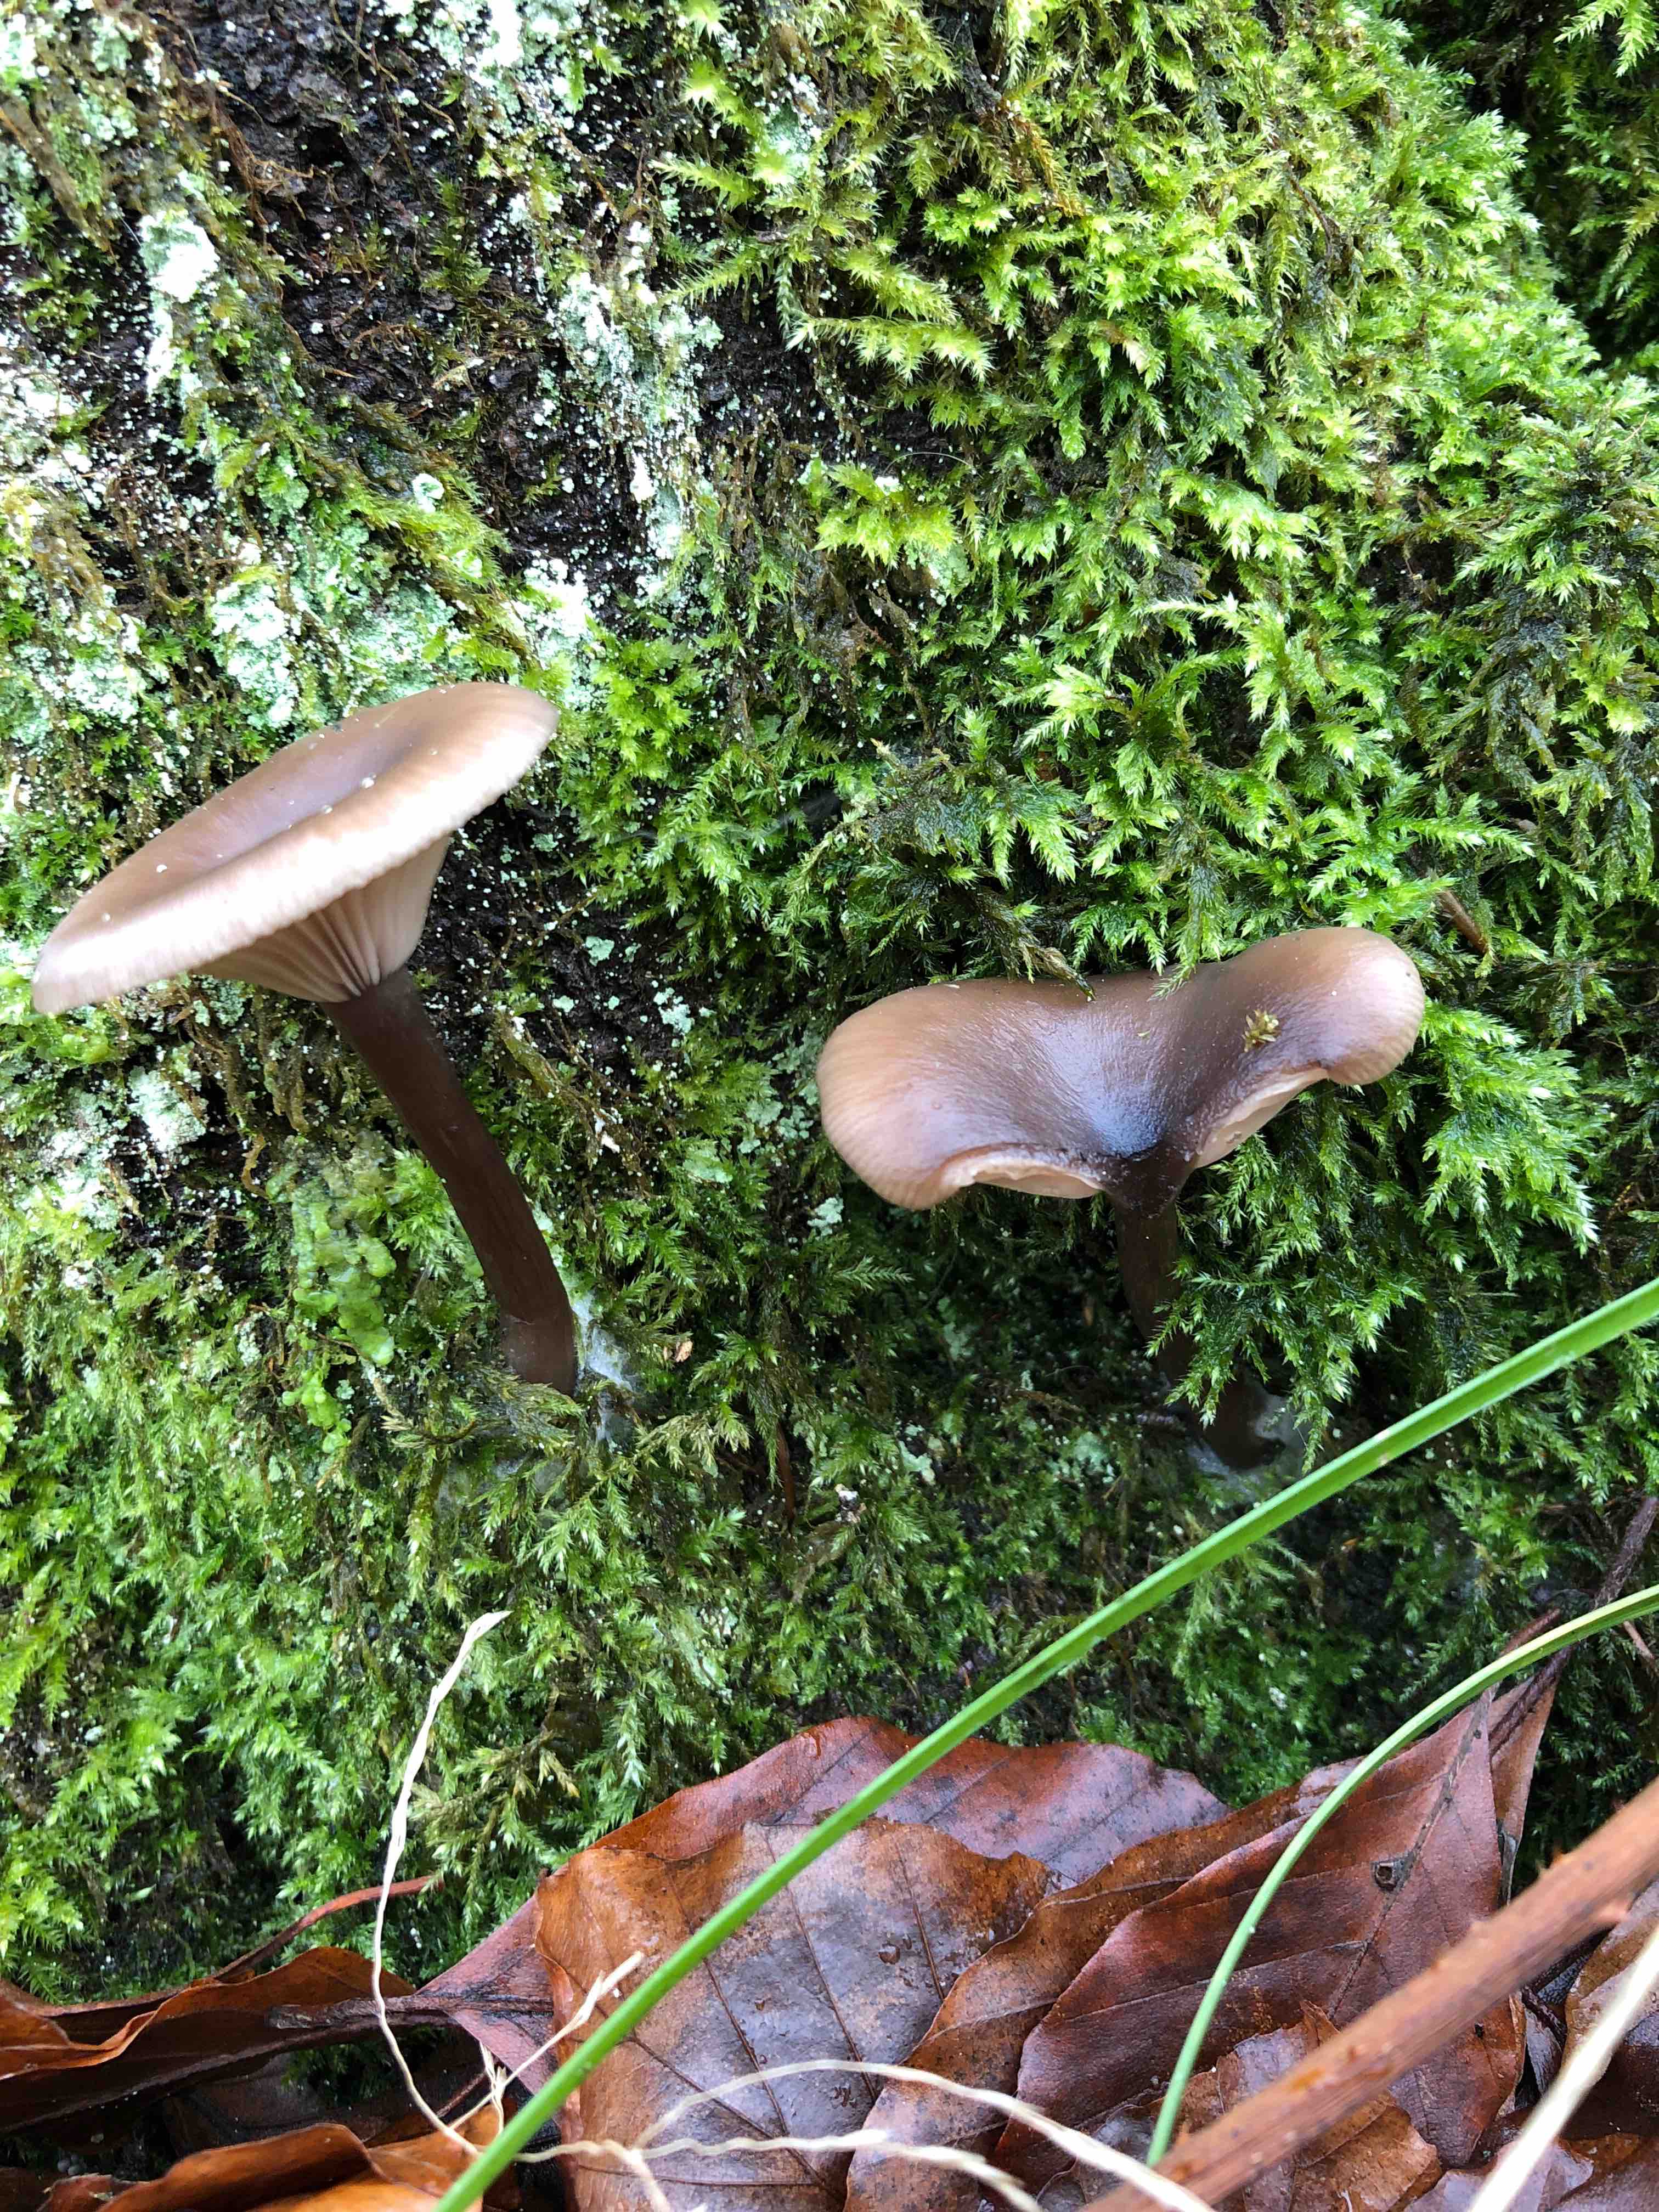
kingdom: Fungi
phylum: Basidiomycota
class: Agaricomycetes
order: Agaricales
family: Pseudoclitocybaceae
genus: Pseudoclitocybe
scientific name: Pseudoclitocybe cyathiformis
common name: almindelig bægertragthat
